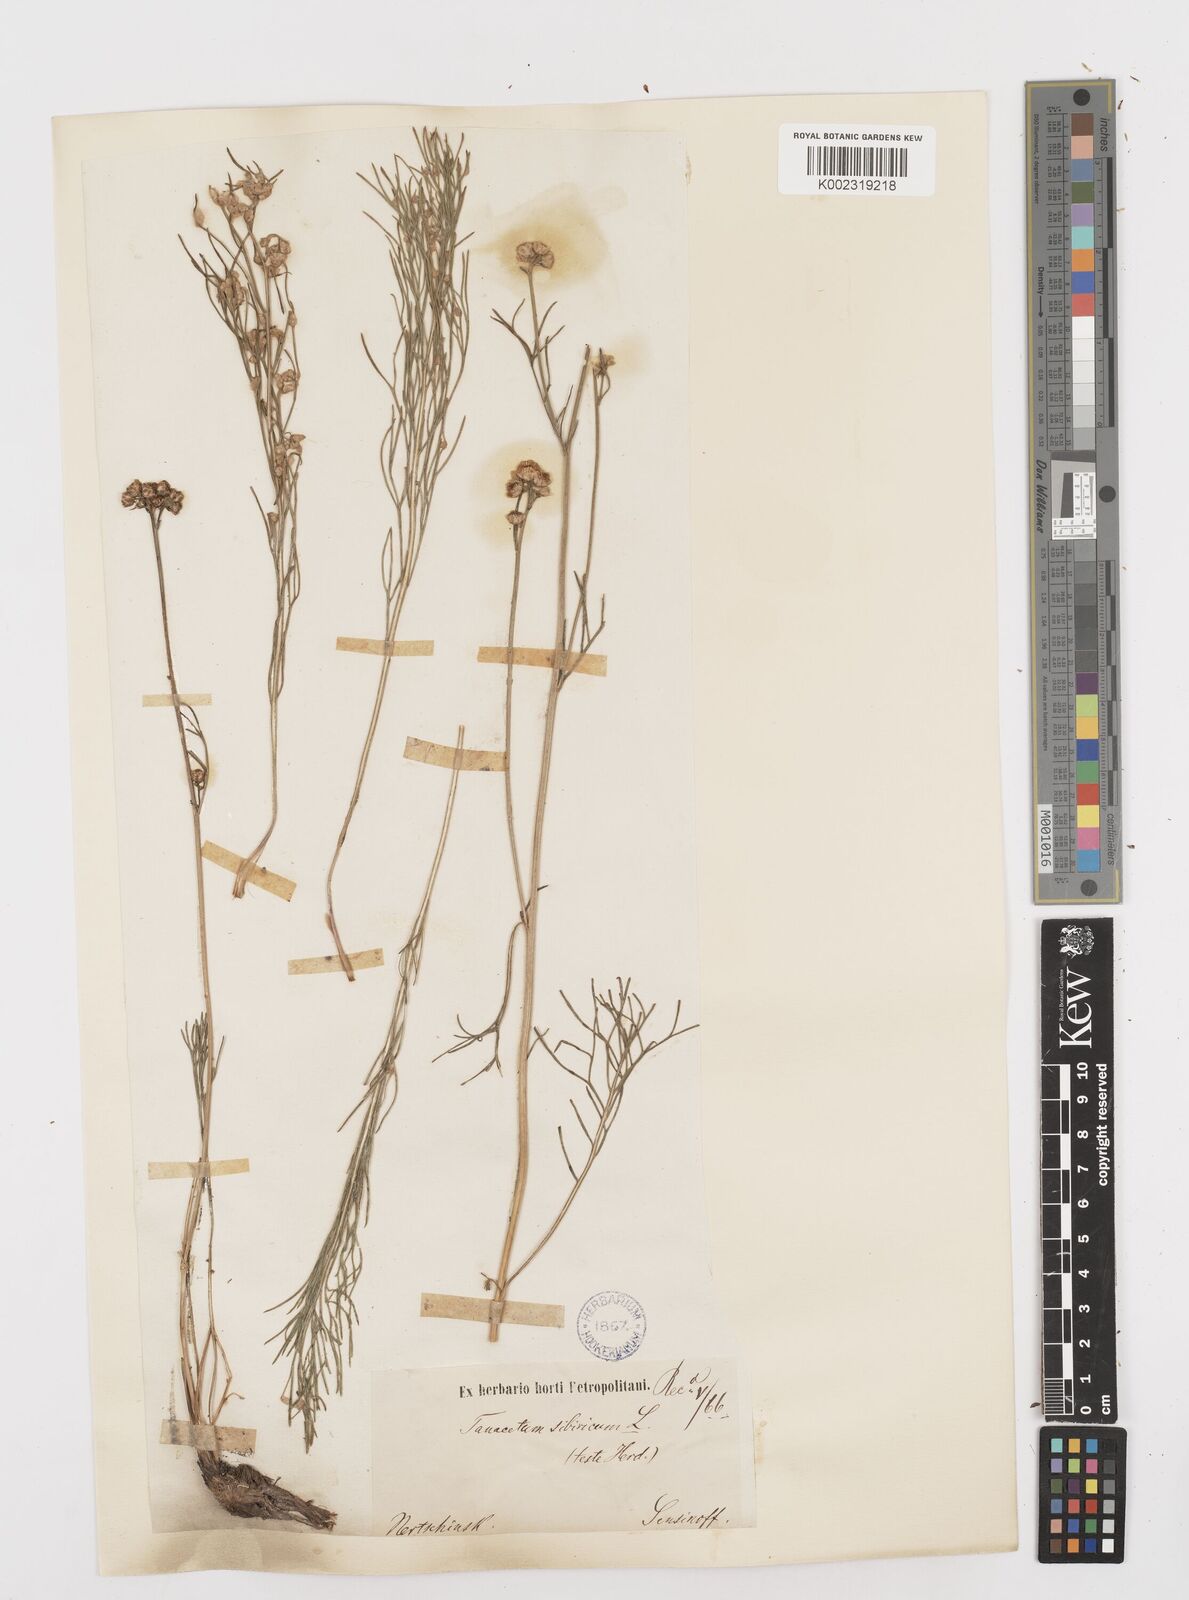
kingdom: Plantae
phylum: Tracheophyta
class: Magnoliopsida
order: Asterales
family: Asteraceae
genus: Filifolium
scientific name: Filifolium sibiricum
